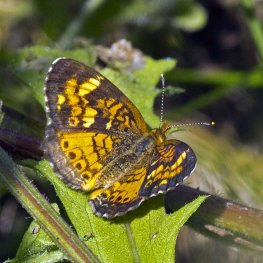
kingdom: Animalia
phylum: Arthropoda
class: Insecta
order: Lepidoptera
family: Nymphalidae
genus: Phyciodes
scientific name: Phyciodes tharos
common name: Northern Crescent
